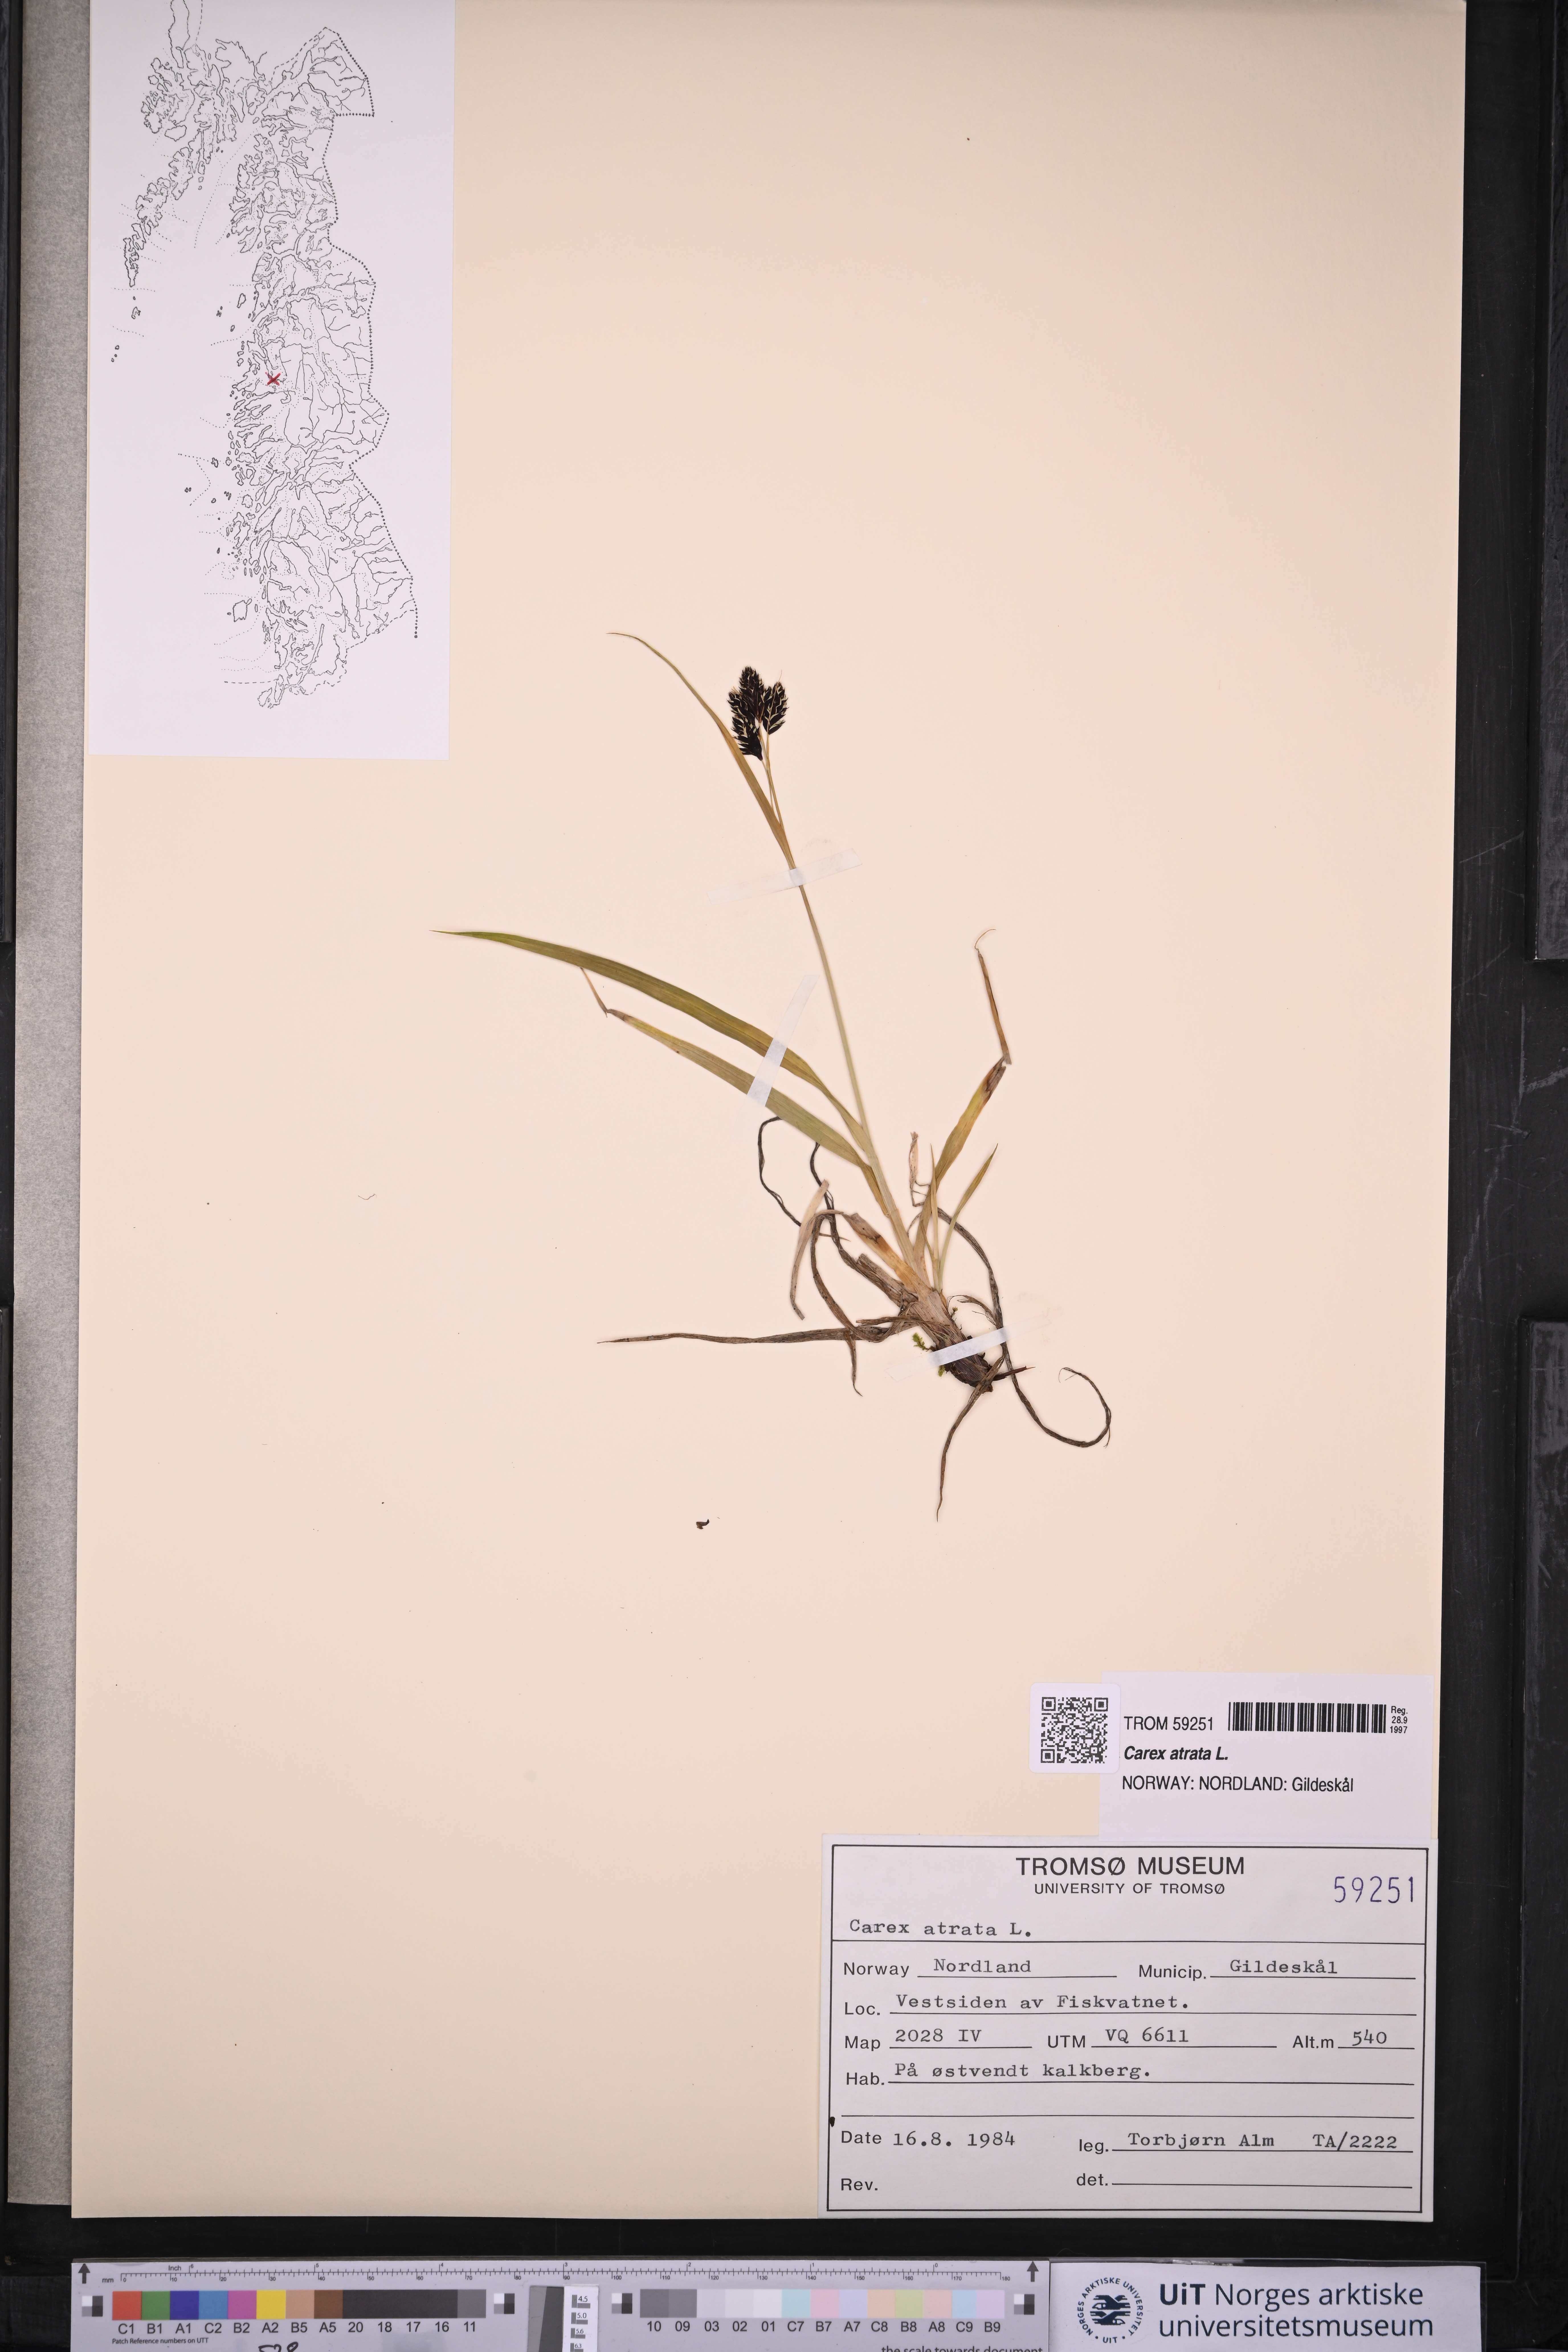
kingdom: Plantae
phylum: Tracheophyta
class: Liliopsida
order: Poales
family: Cyperaceae
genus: Carex
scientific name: Carex atrata
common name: Black alpine sedge
